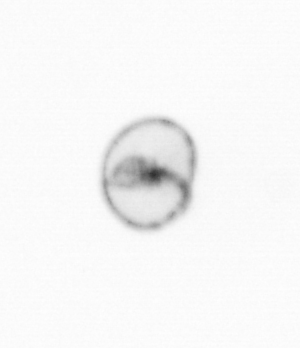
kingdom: Chromista
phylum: Myzozoa
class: Dinophyceae
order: Noctilucales
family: Noctilucaceae
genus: Noctiluca
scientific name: Noctiluca scintillans
